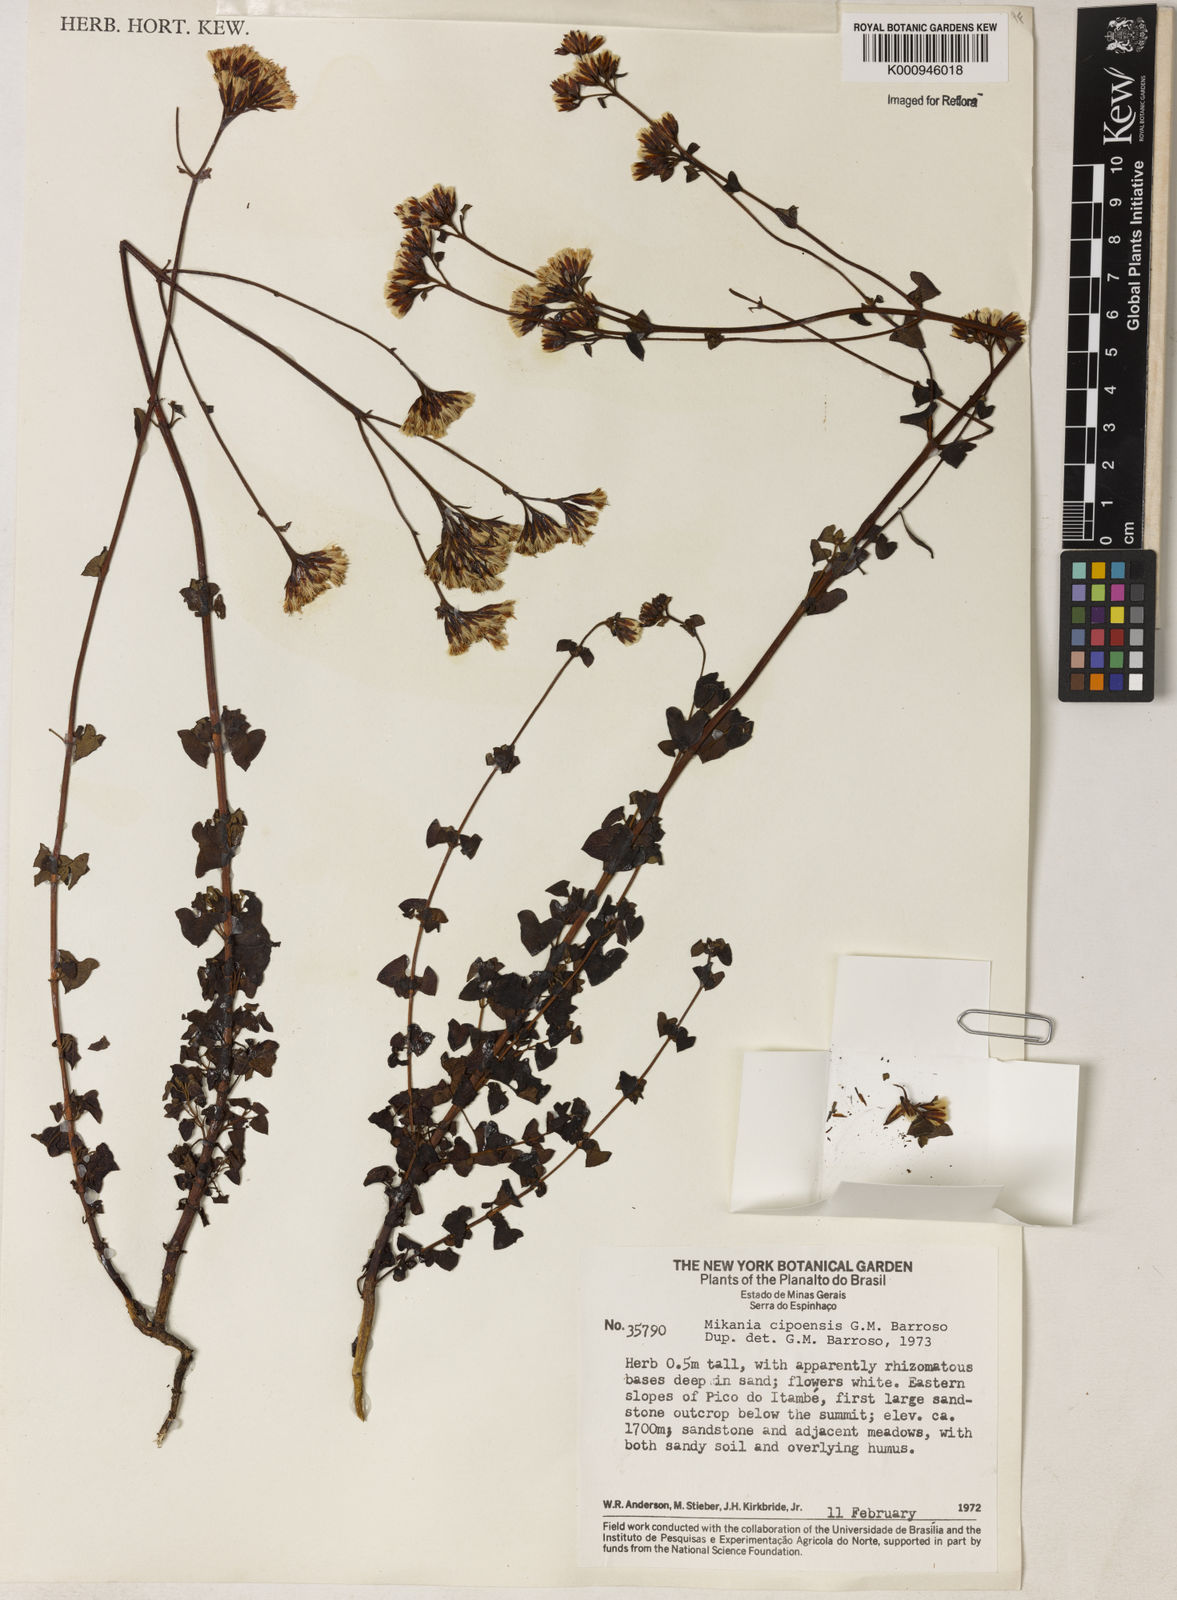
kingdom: Plantae
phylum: Tracheophyta
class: Magnoliopsida
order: Asterales
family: Asteraceae
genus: Mikania
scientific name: Mikania cipoensis
